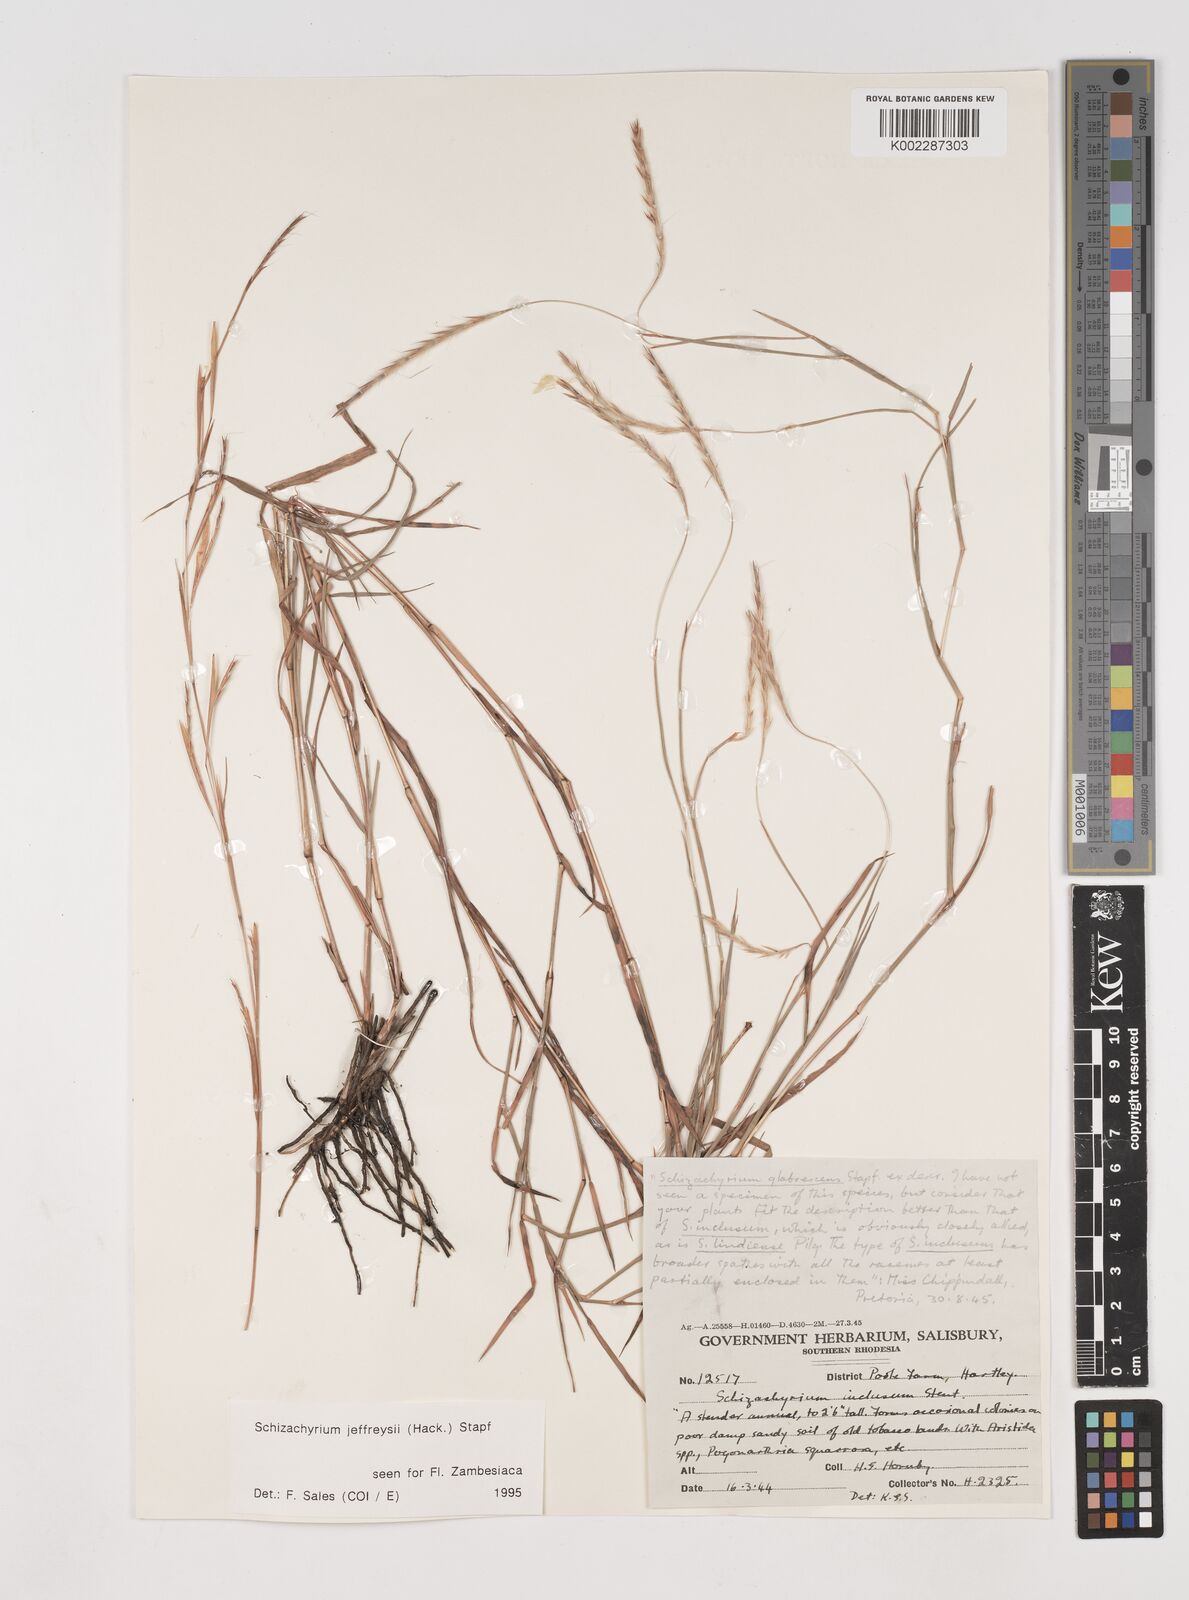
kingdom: Plantae
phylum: Tracheophyta
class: Liliopsida
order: Poales
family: Poaceae
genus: Schizachyrium
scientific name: Schizachyrium jeffreysii
